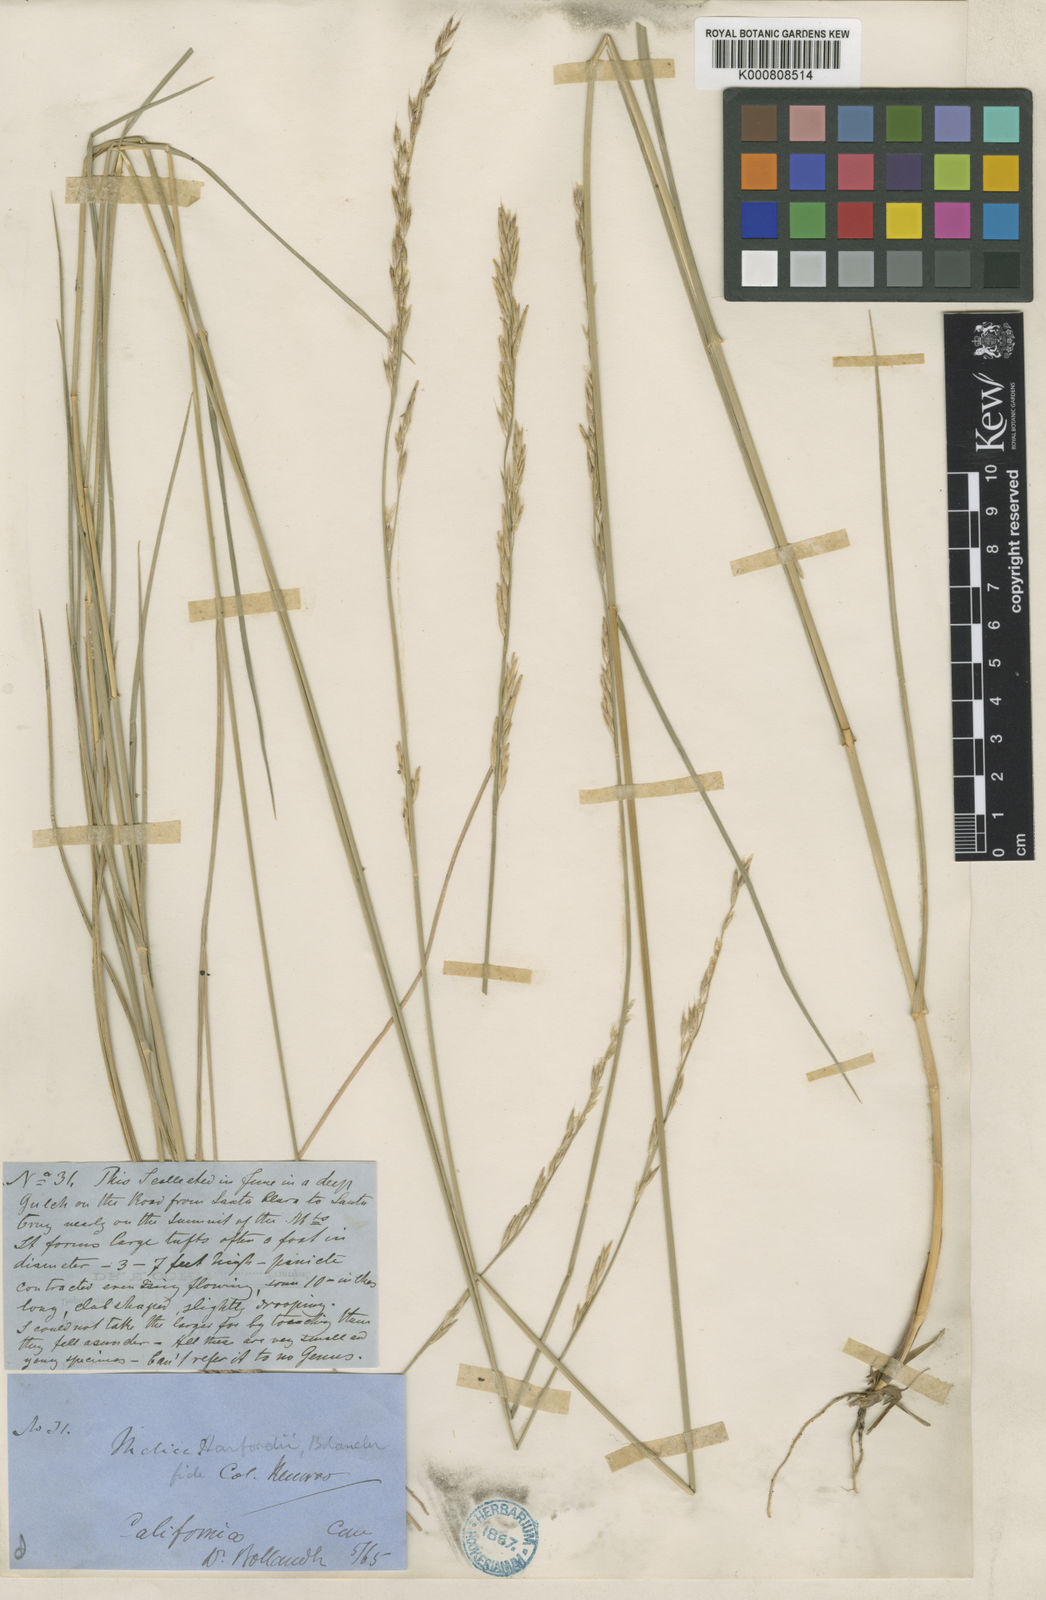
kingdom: Plantae
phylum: Tracheophyta
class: Liliopsida
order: Poales
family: Poaceae
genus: Melica
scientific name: Melica harfordii
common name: Harford's melic
